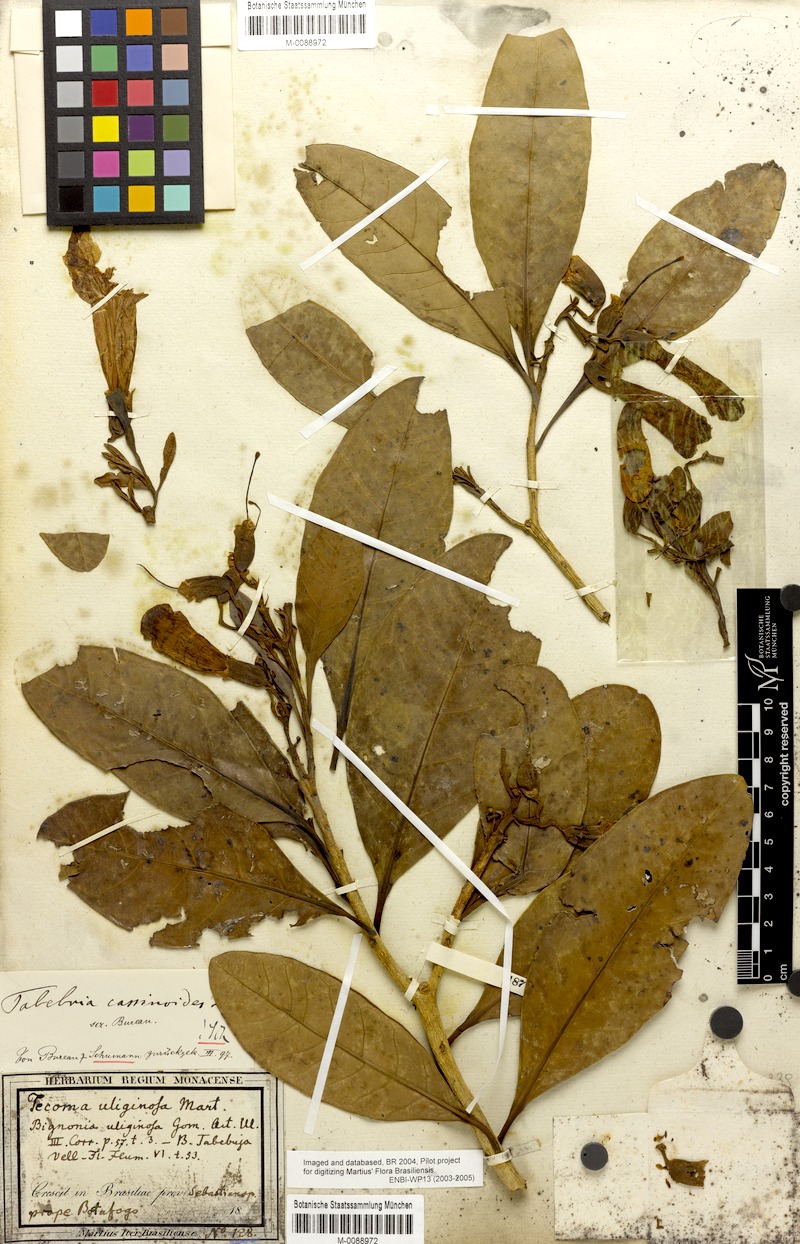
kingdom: Plantae
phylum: Tracheophyta
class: Magnoliopsida
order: Lamiales
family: Bignoniaceae
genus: Tabebuia
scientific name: Tabebuia cassinoides
